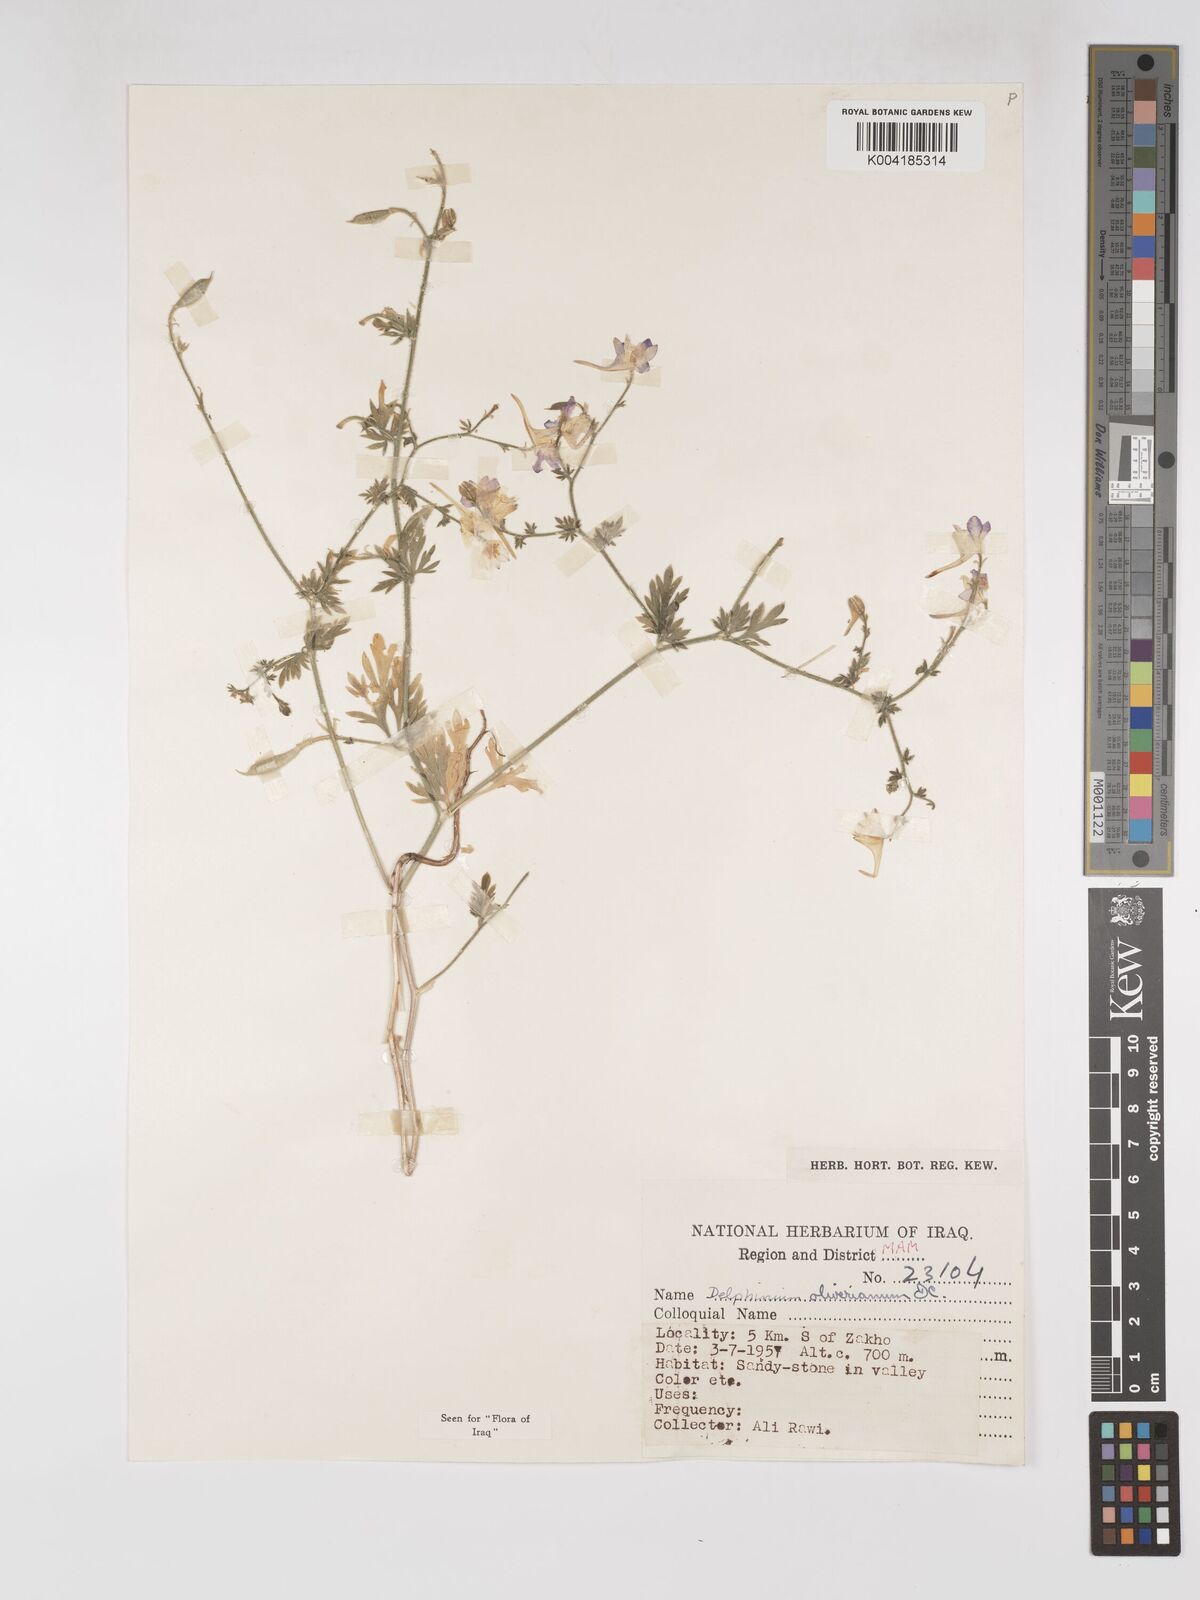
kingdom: Plantae
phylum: Tracheophyta
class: Magnoliopsida
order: Ranunculales
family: Ranunculaceae
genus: Delphinium
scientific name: Delphinium oliverianum
